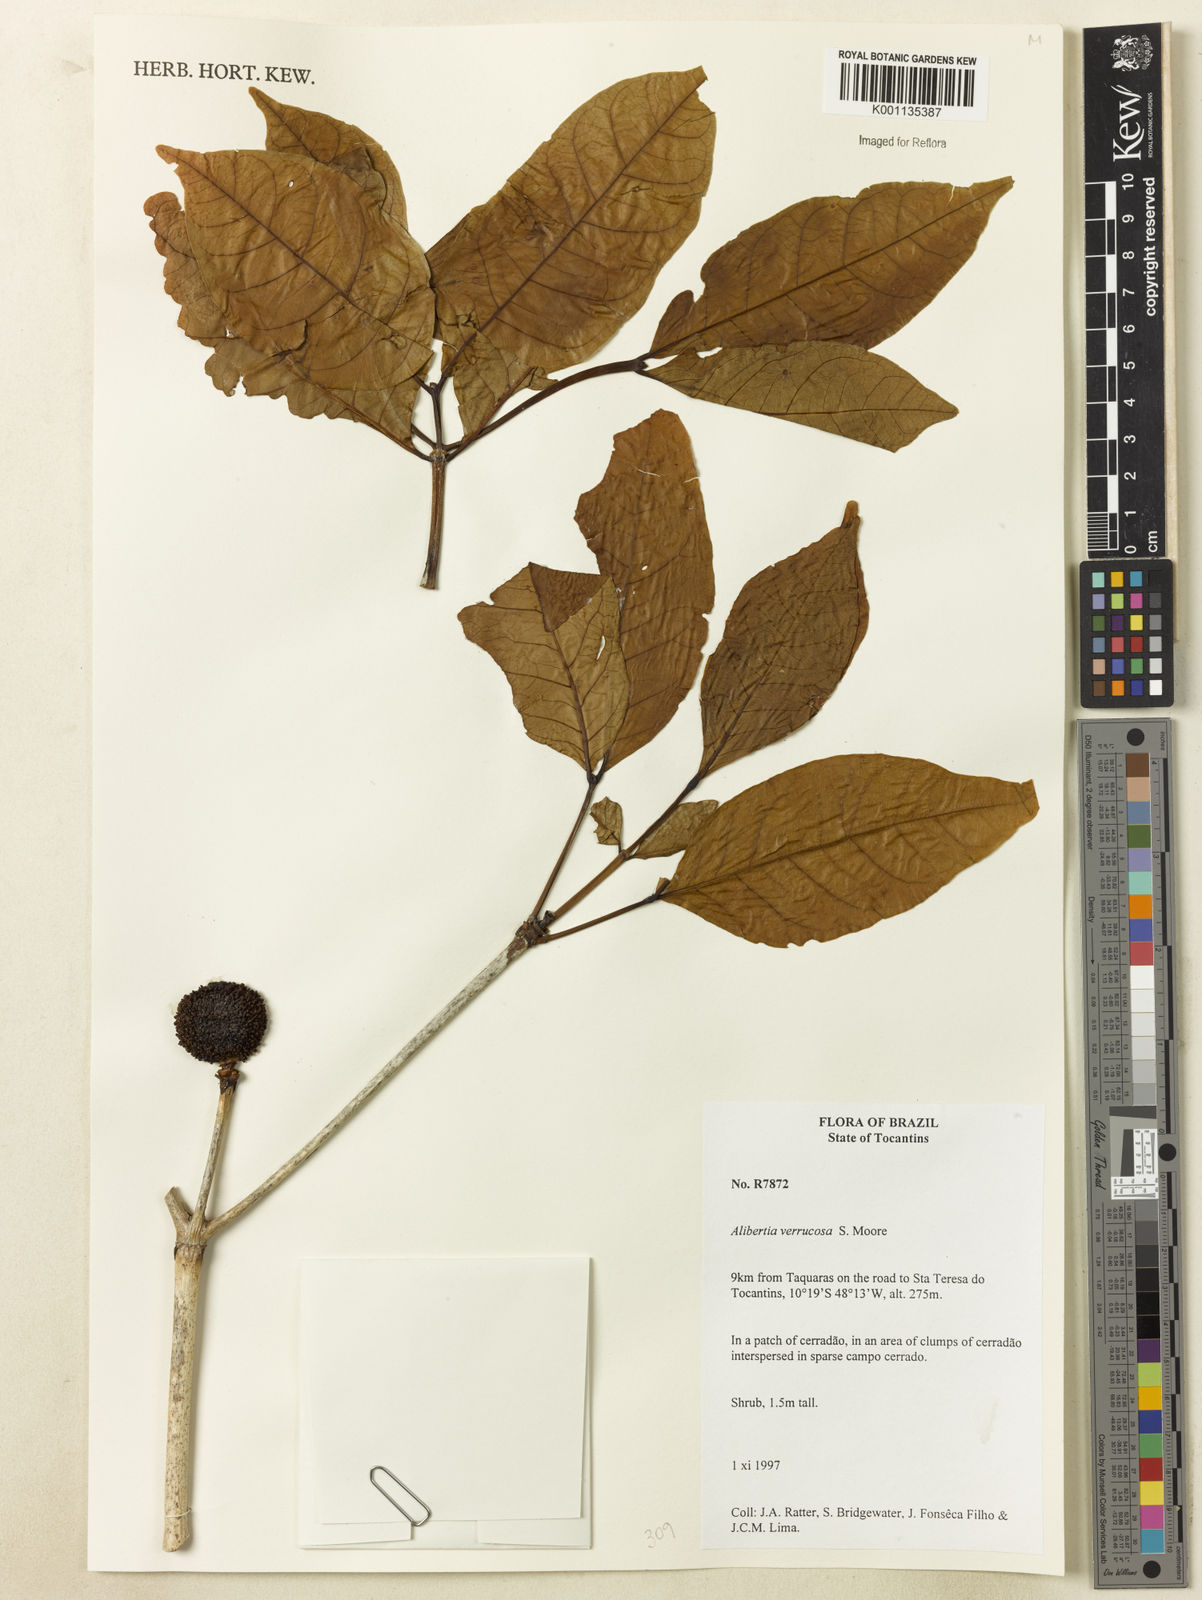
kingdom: Plantae
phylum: Tracheophyta
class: Magnoliopsida
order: Gentianales
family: Rubiaceae
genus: Cordiera
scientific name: Cordiera macrophylla
